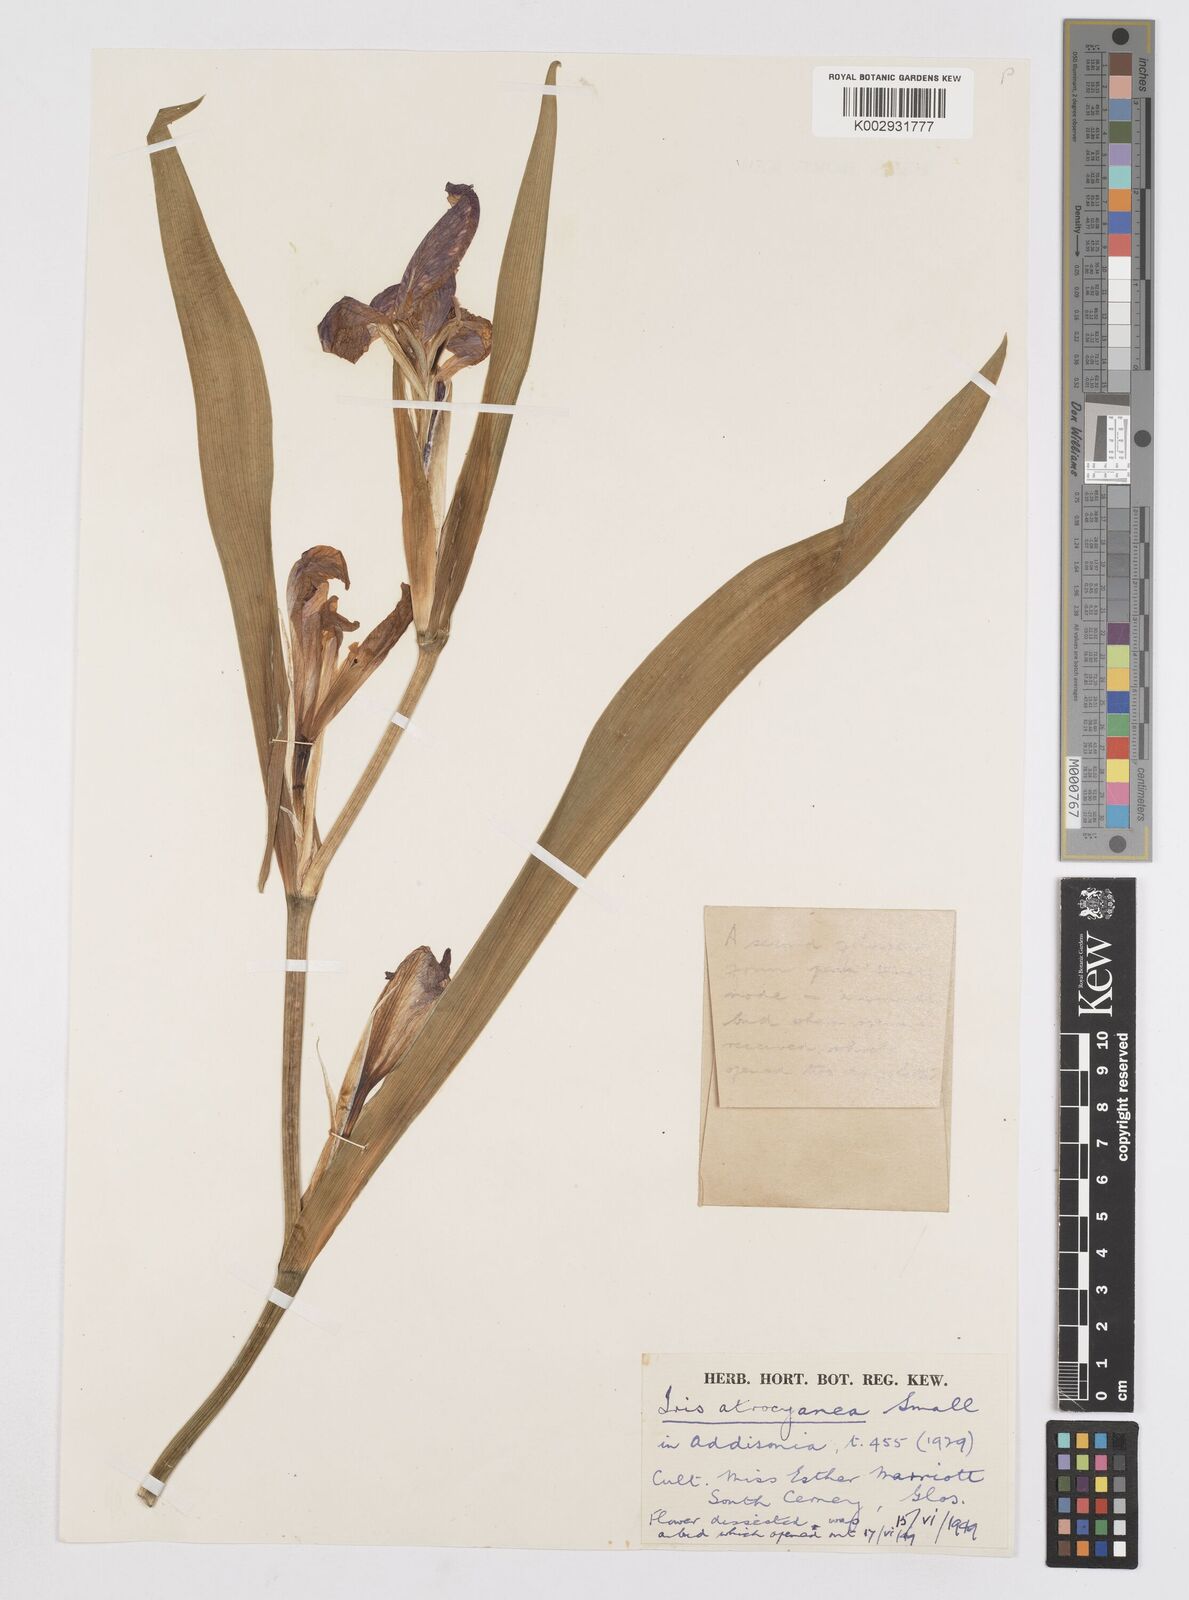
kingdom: Plantae
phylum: Tracheophyta
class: Liliopsida
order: Asparagales
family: Iridaceae
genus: Iris
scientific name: Iris brevicaulis
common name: Zigzag iris
